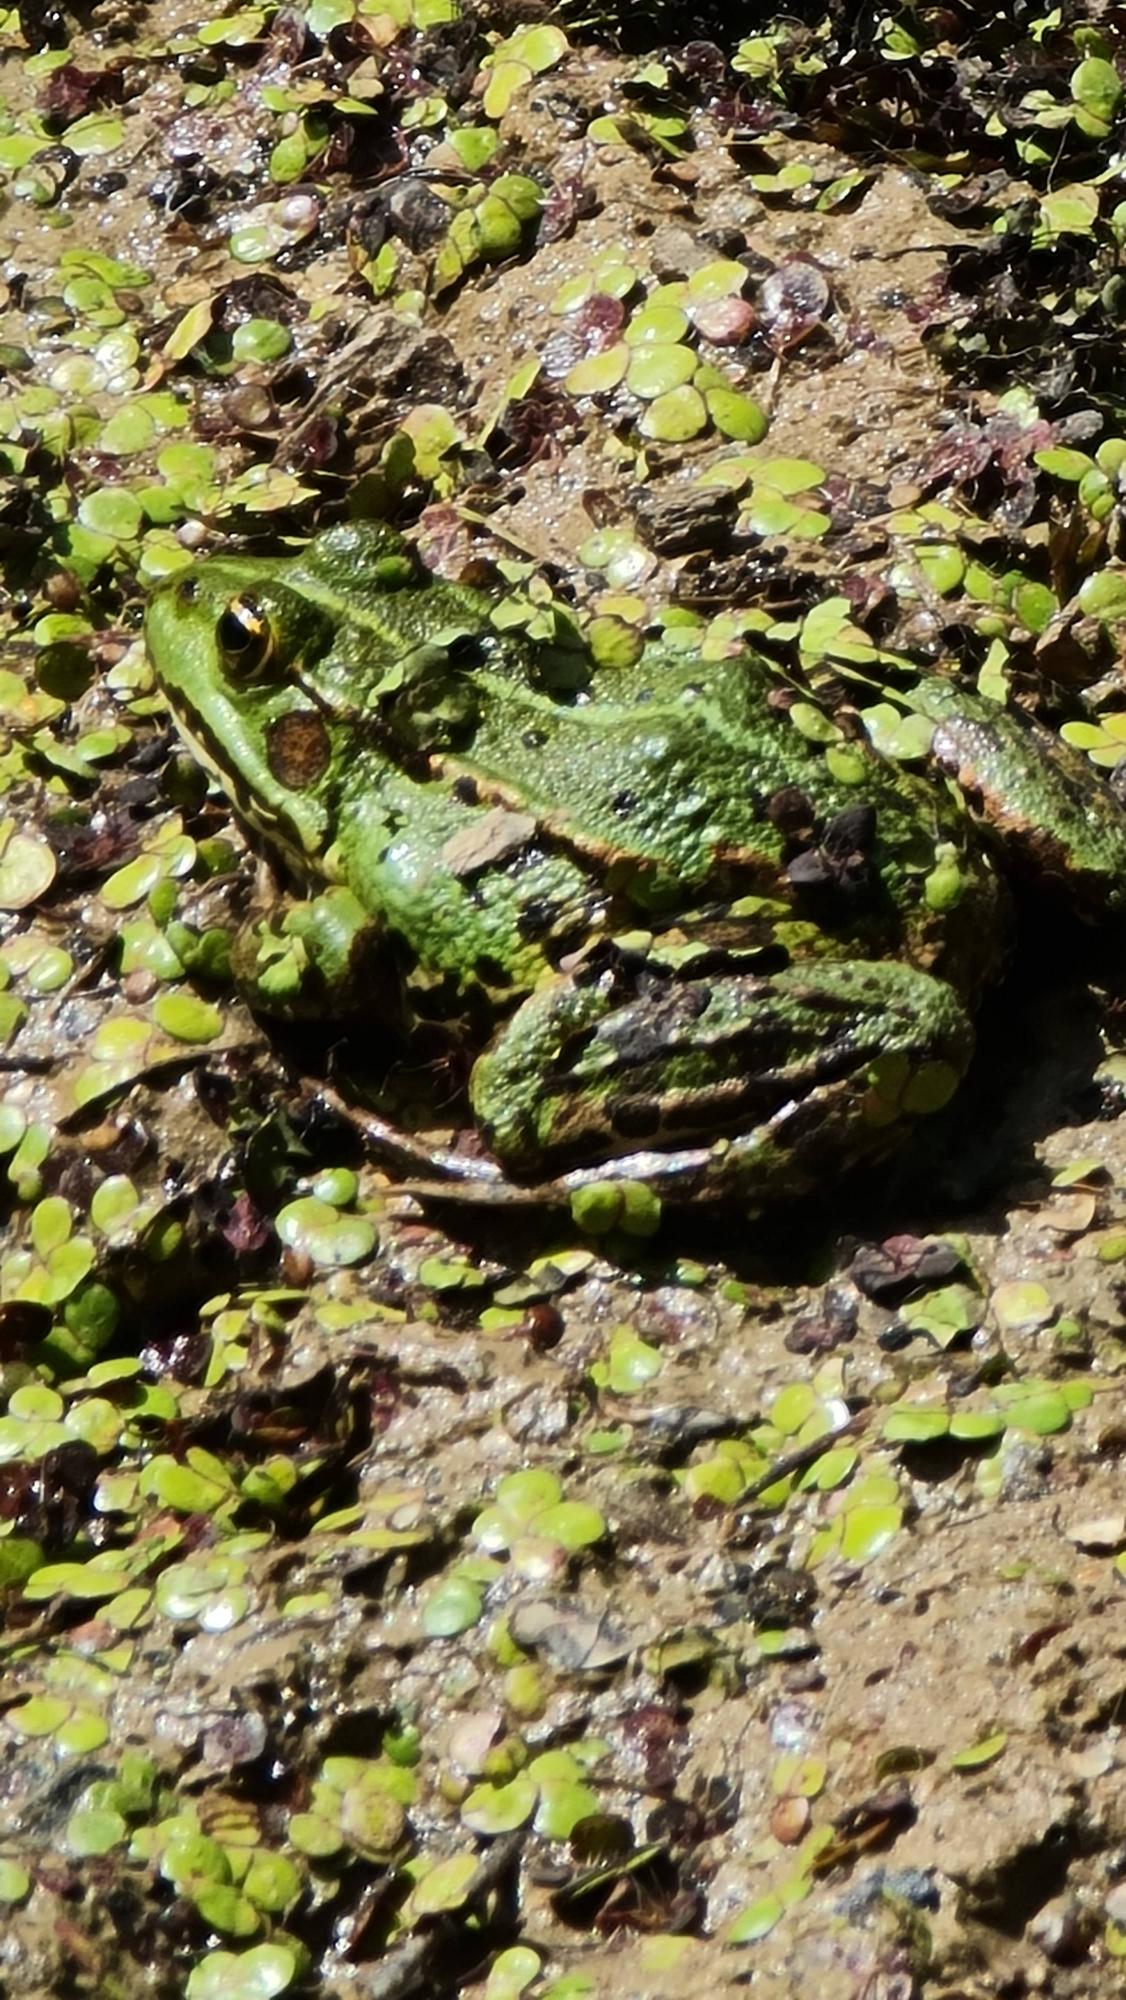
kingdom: Animalia
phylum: Chordata
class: Amphibia
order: Anura
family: Ranidae
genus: Pelophylax
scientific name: Pelophylax lessonae
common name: Grøn frø
